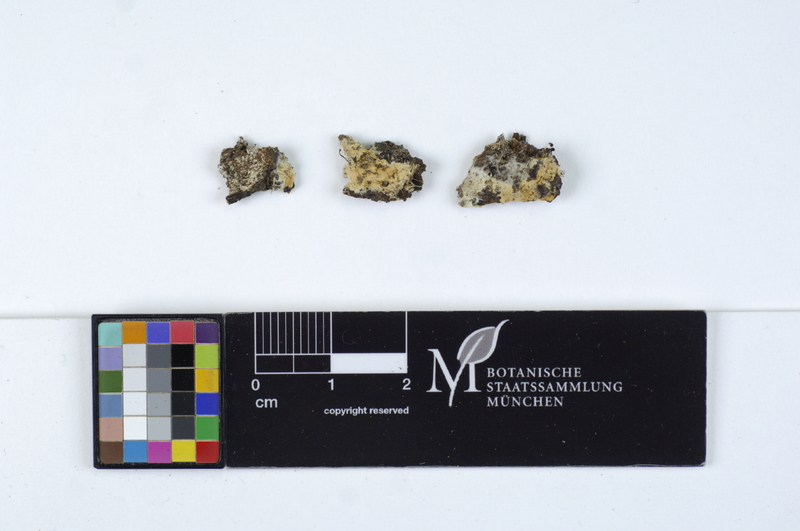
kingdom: Fungi
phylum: Basidiomycota
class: Agaricomycetes
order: Agaricales
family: Stephanosporaceae
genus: Cristinia
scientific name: Cristinia eichleri
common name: Dentists' bane
